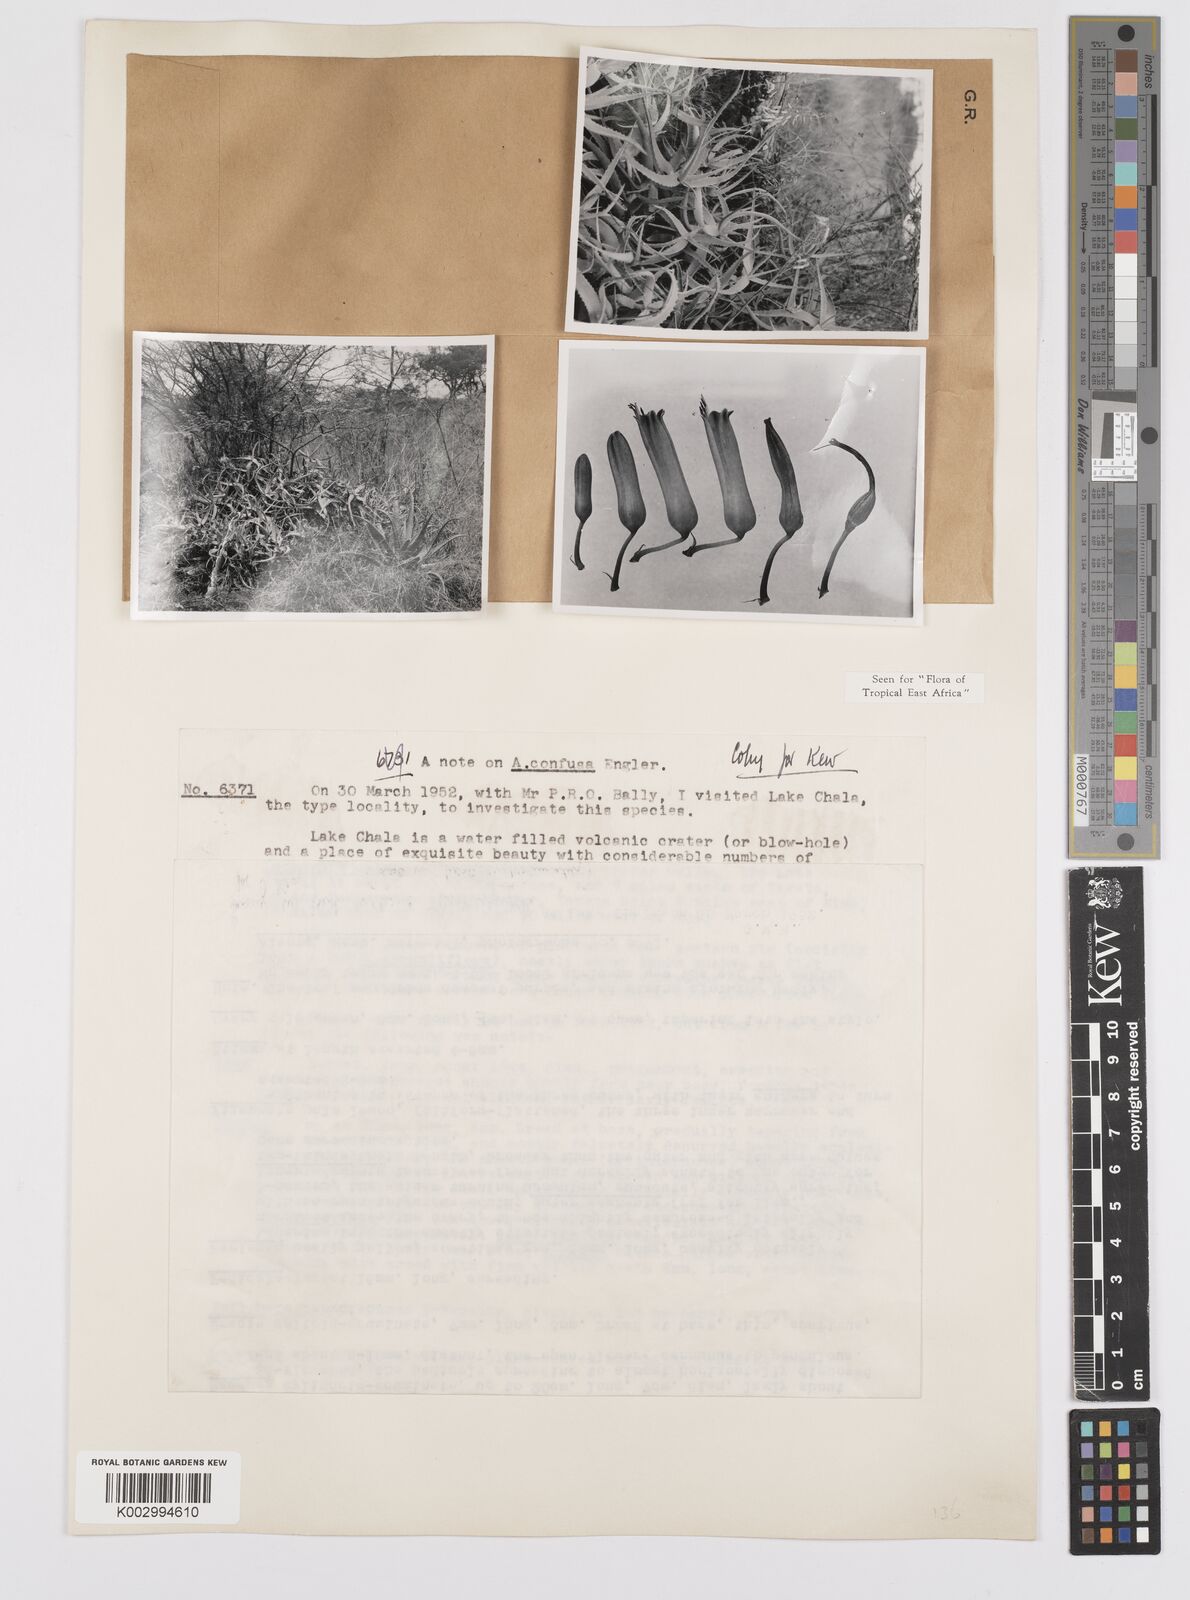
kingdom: Plantae
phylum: Tracheophyta
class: Liliopsida
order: Asparagales
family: Asphodelaceae
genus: Aloe
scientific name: Aloe confusa
